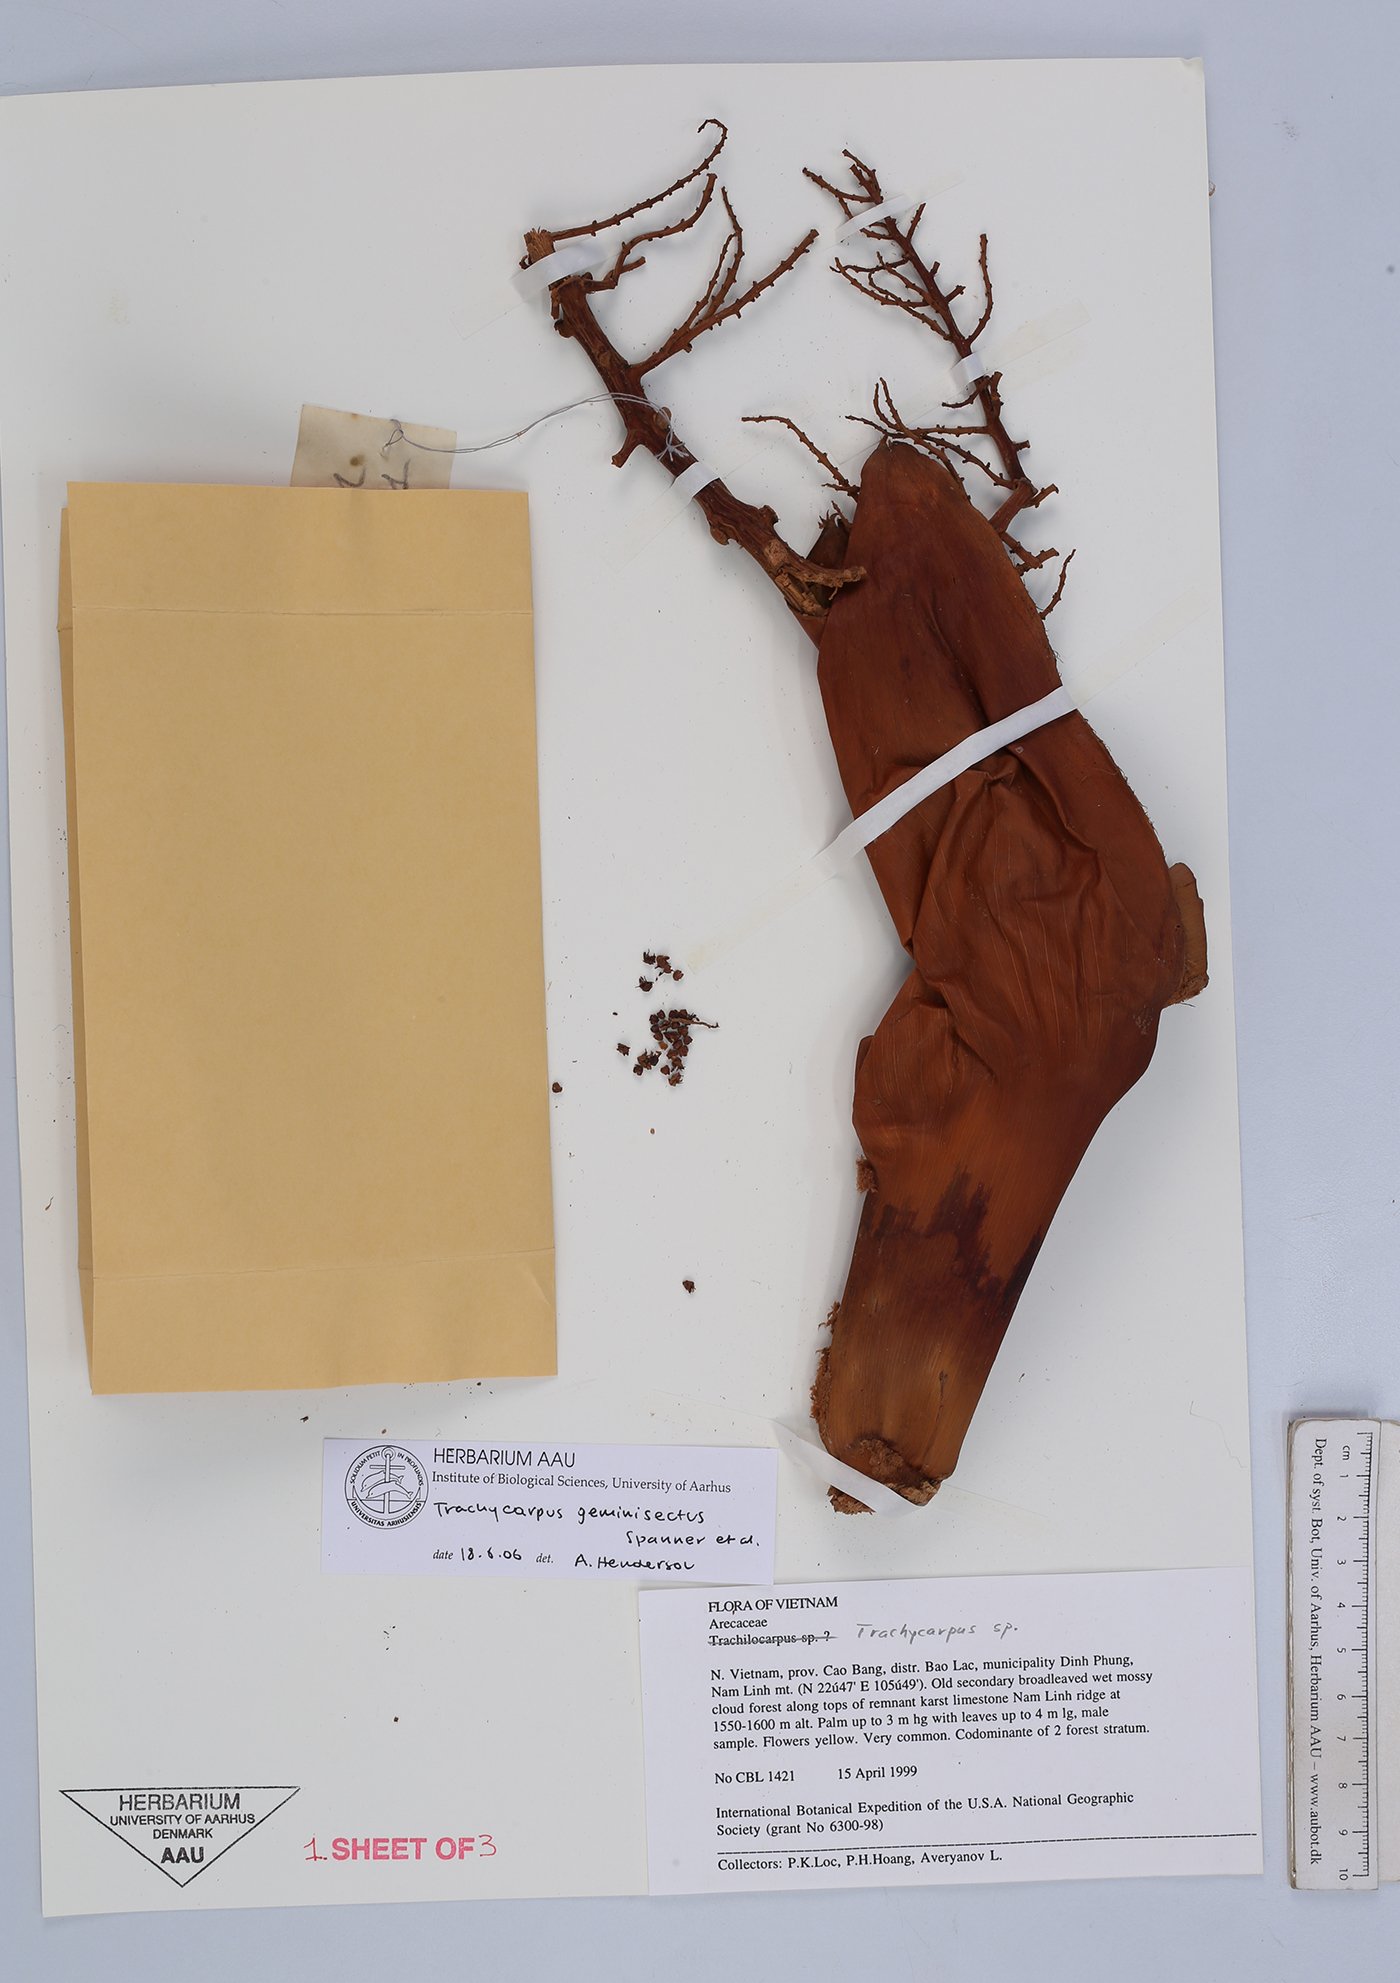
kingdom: Plantae
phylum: Tracheophyta
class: Liliopsida
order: Arecales
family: Arecaceae
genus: Trachycarpus
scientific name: Trachycarpus geminisectus
